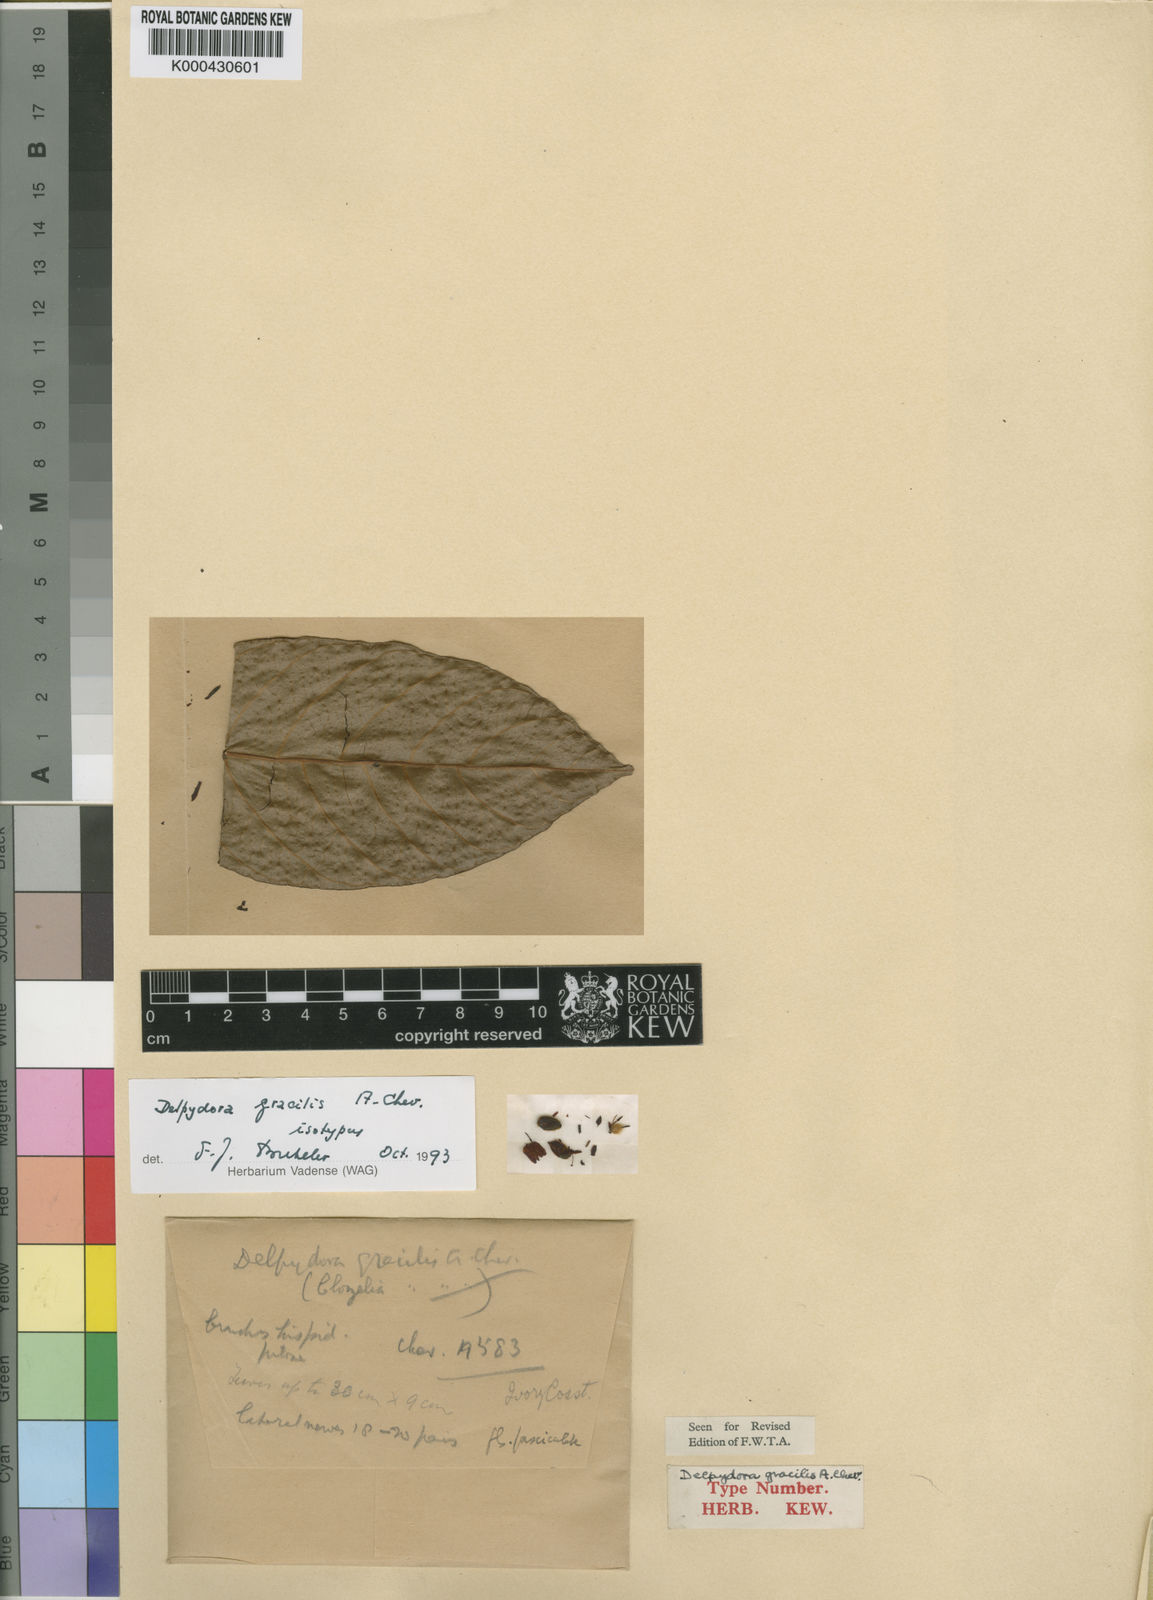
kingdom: Plantae
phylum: Tracheophyta
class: Magnoliopsida
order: Ericales
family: Sapotaceae
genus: Delpydora
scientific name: Delpydora gracilis
